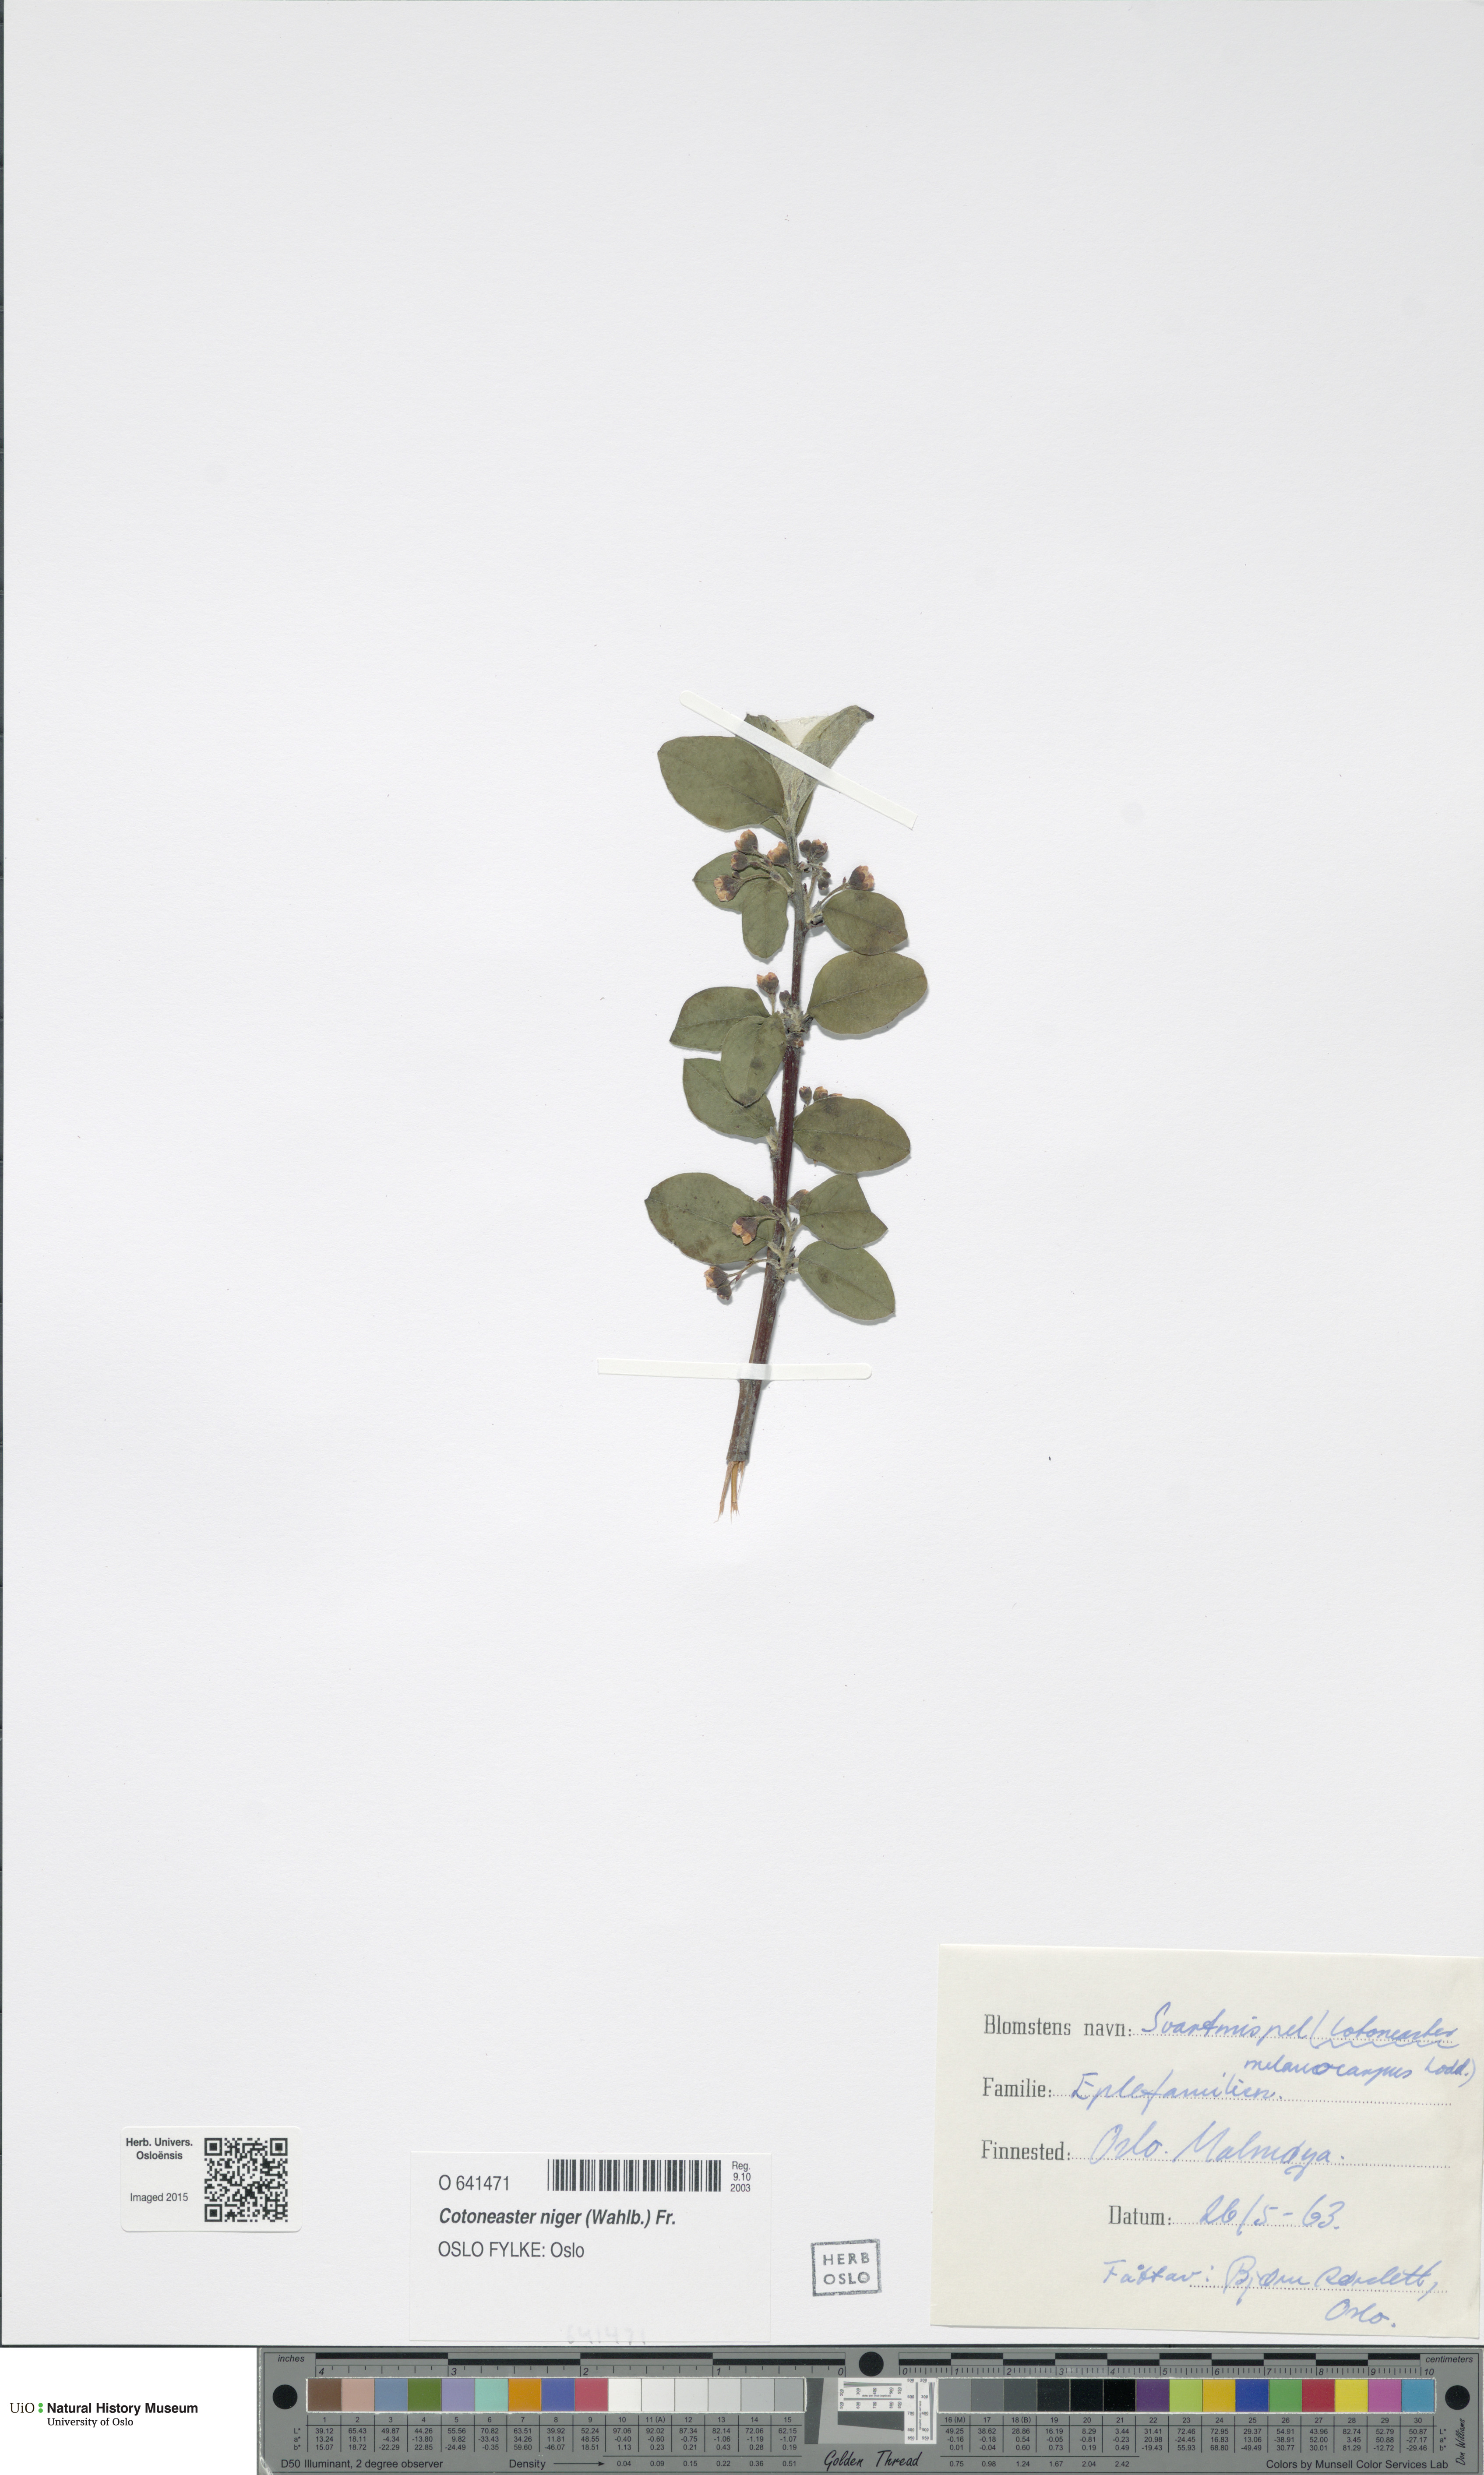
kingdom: Plantae
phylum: Tracheophyta
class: Magnoliopsida
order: Rosales
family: Rosaceae
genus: Cotoneaster
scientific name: Cotoneaster niger
